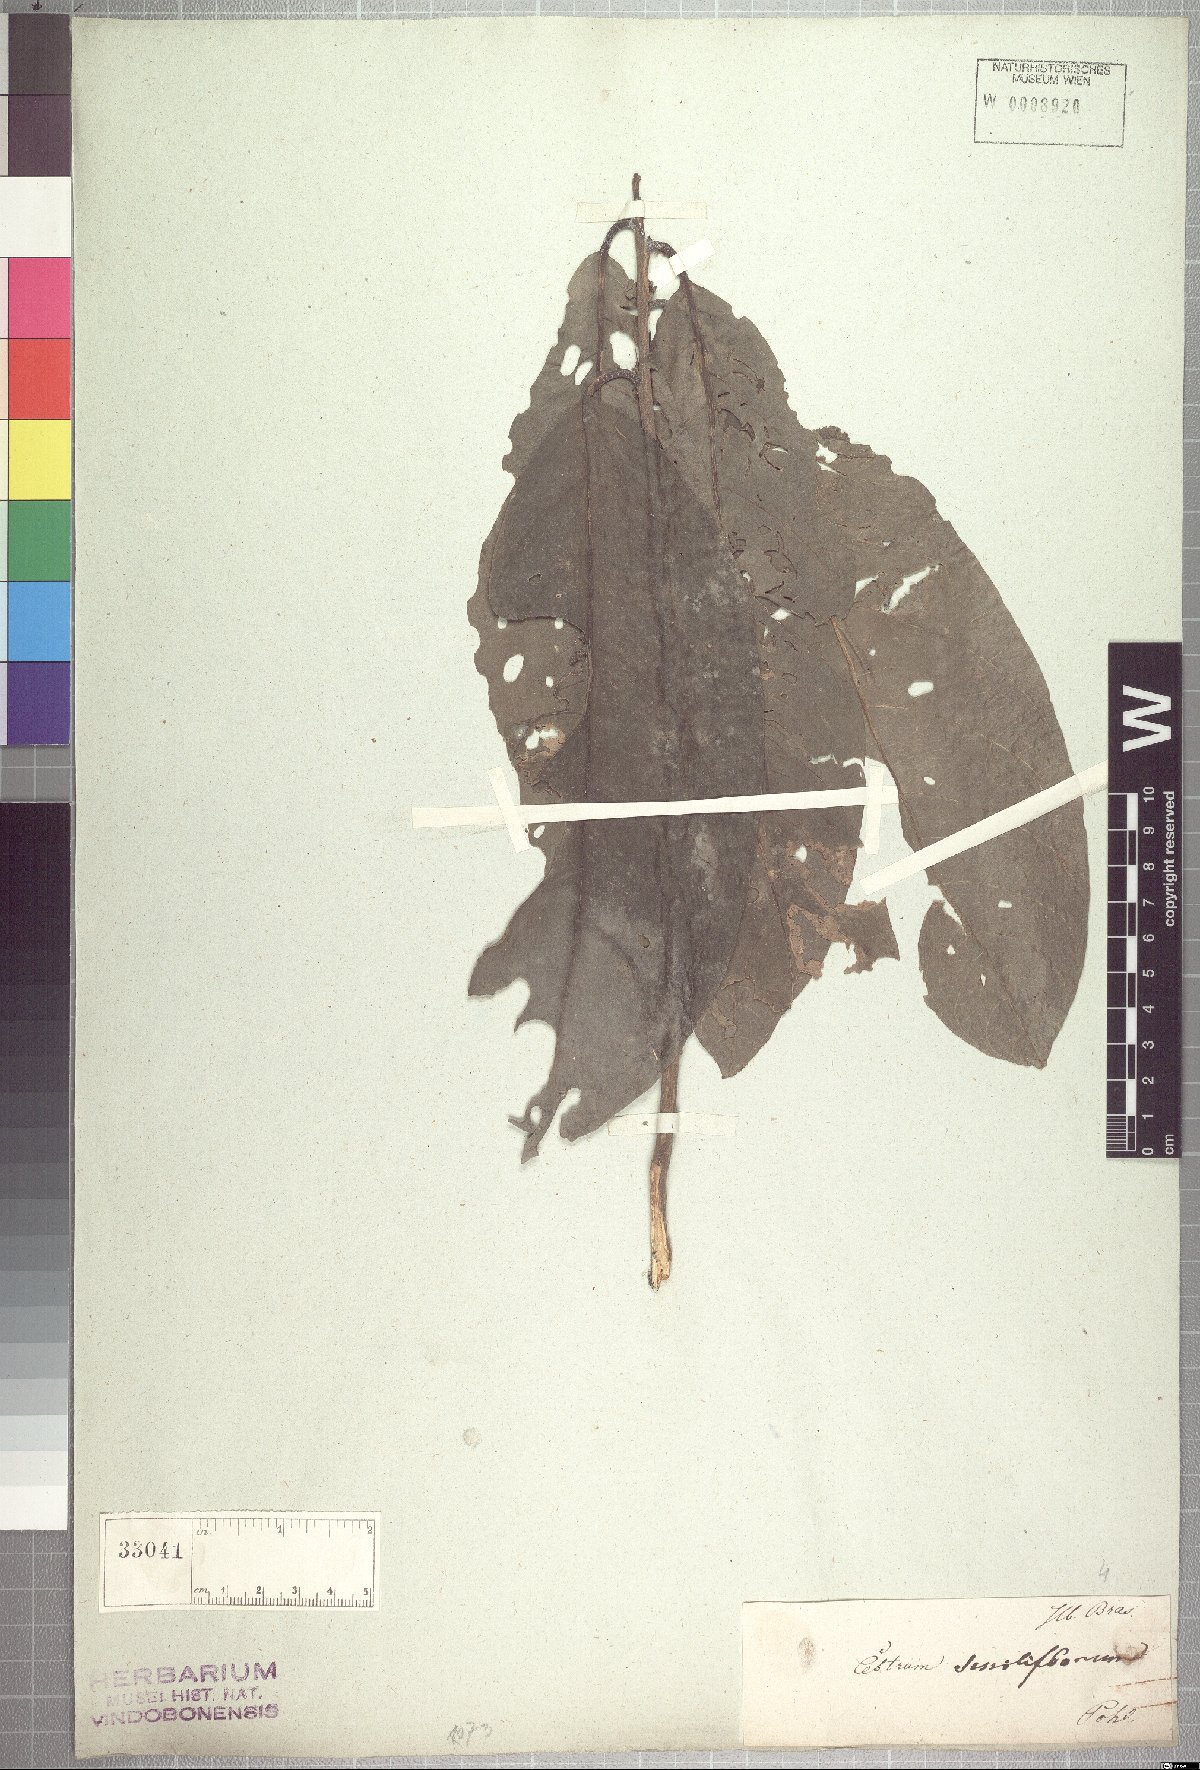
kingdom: Plantae
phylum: Tracheophyta
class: Magnoliopsida
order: Solanales
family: Solanaceae
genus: Cestrum
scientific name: Cestrum schlechtendalii
